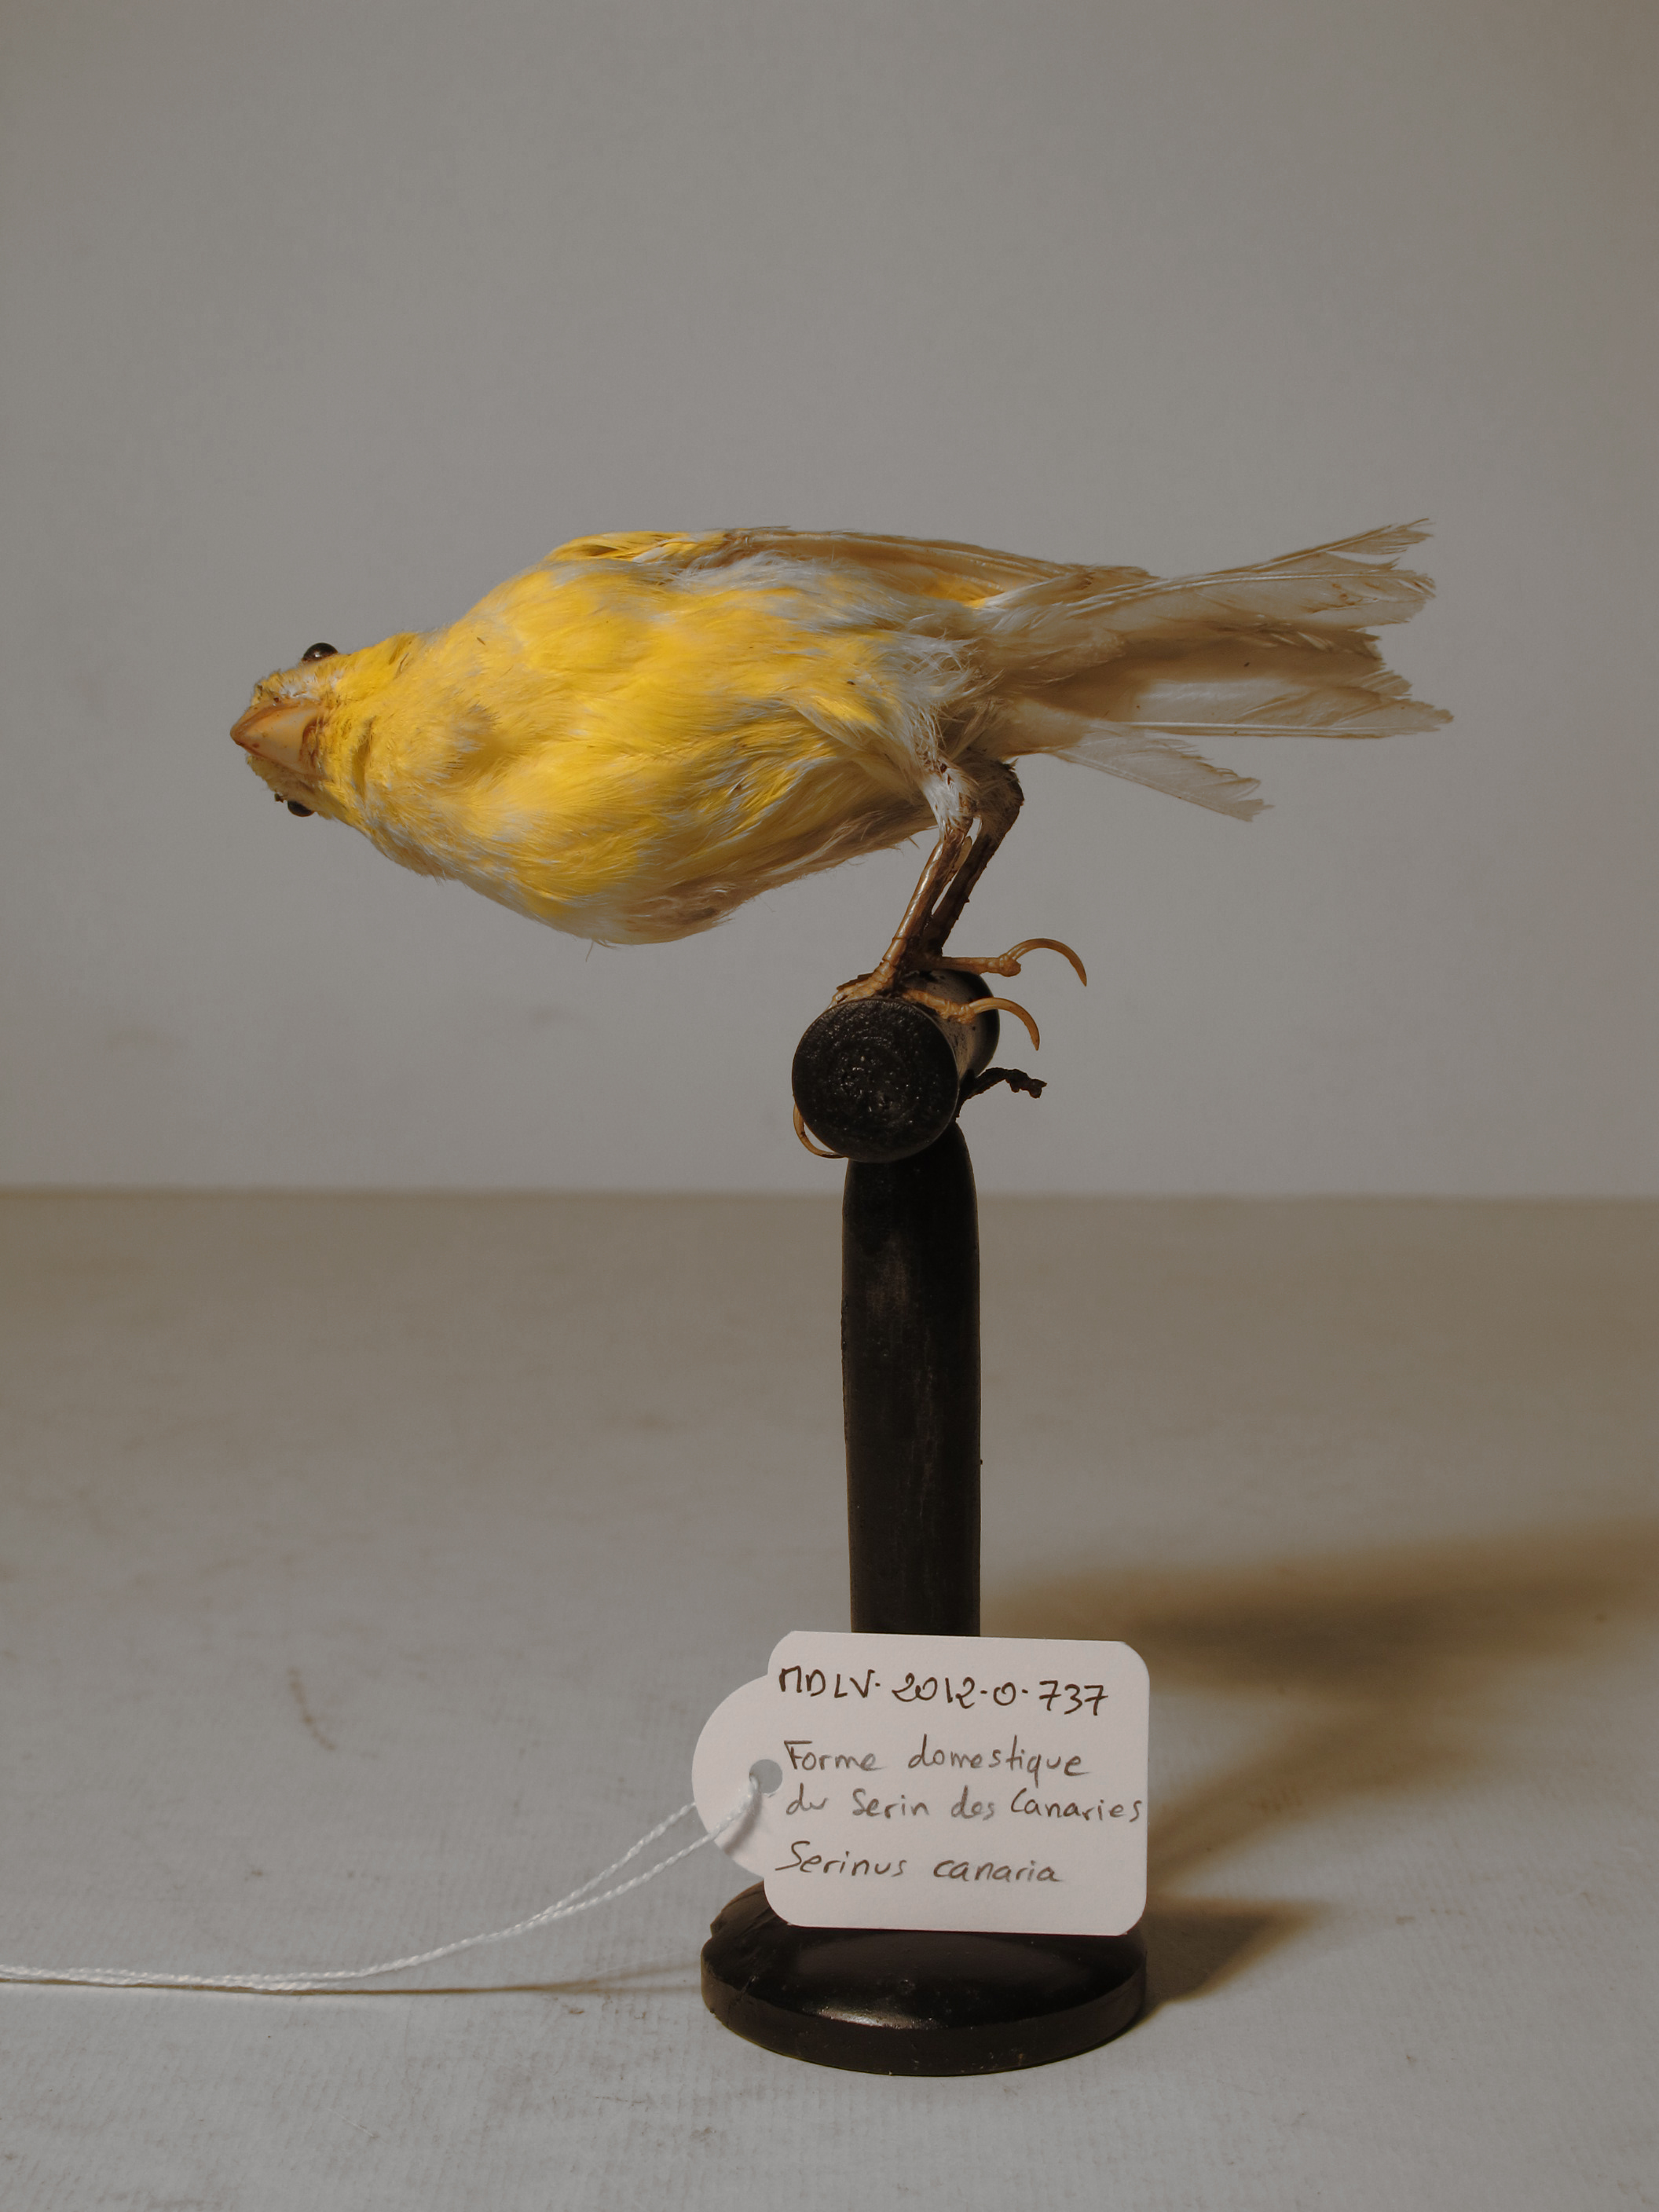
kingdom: Animalia
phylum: Chordata
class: Aves
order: Passeriformes
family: Fringillidae
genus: Serinus
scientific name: Serinus canaria
